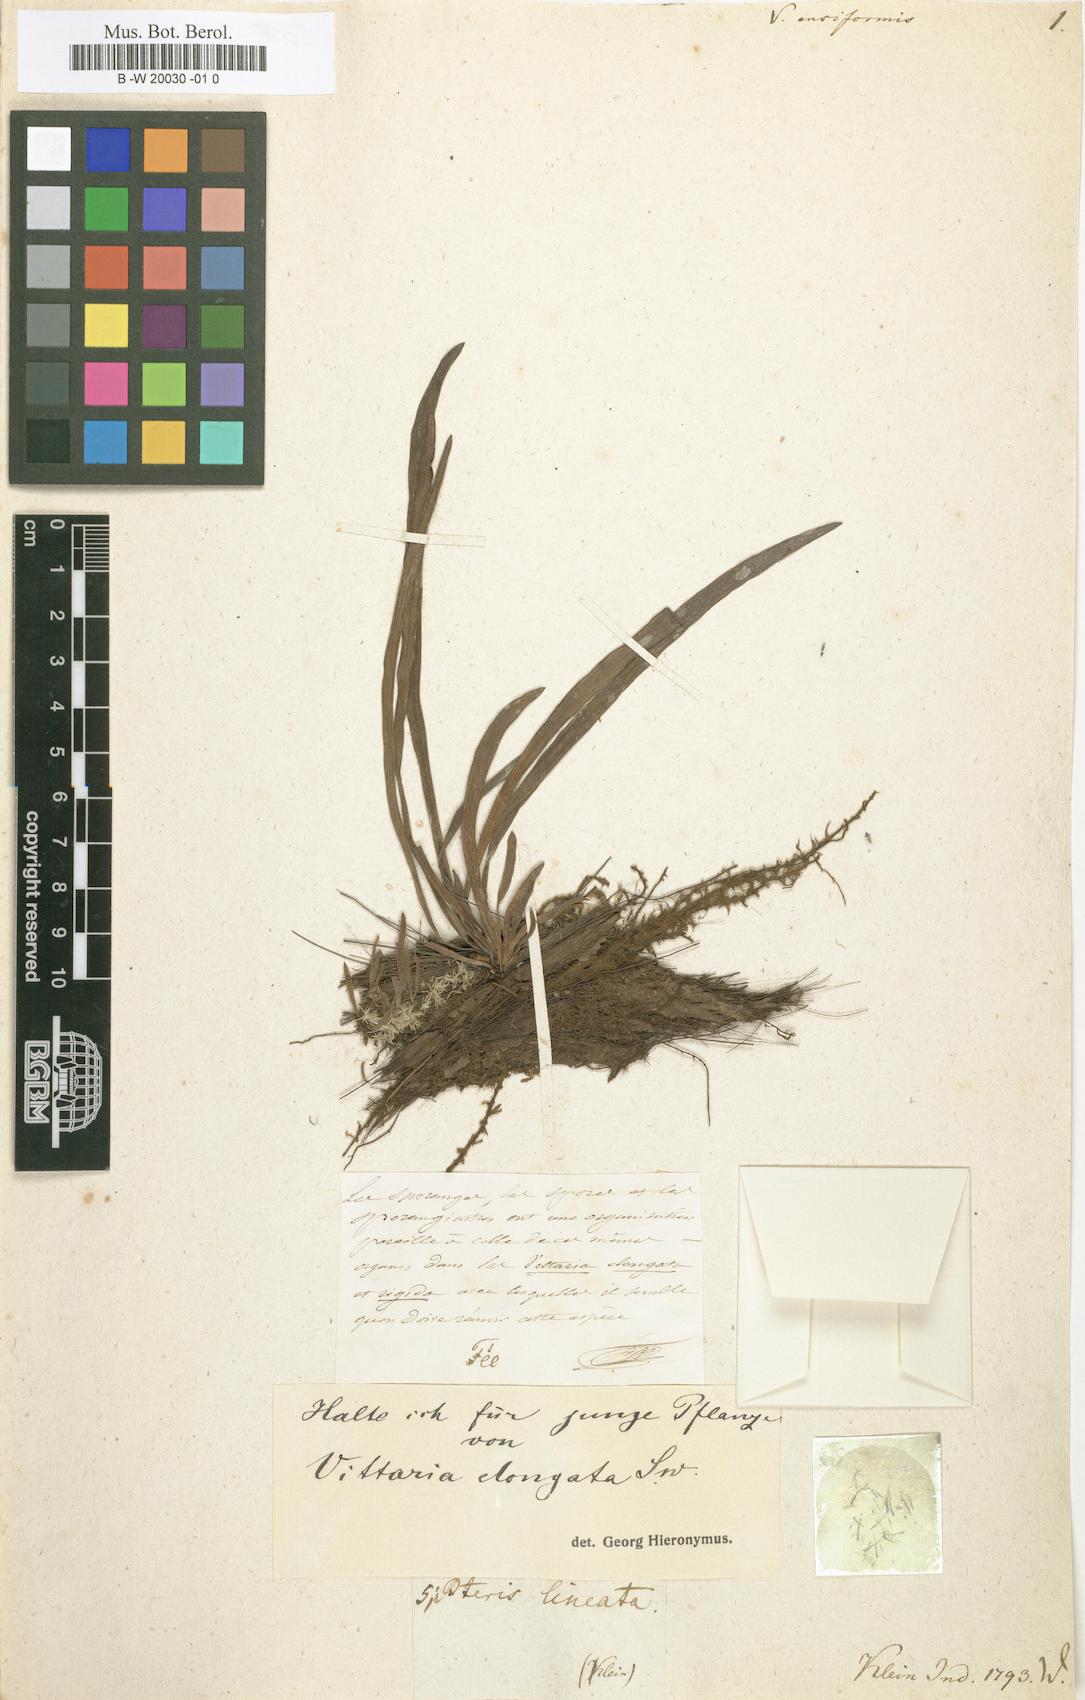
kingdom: Plantae
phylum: Tracheophyta
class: Polypodiopsida
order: Polypodiales
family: Pteridaceae
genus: Haplopteris
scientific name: Haplopteris ensiformis
